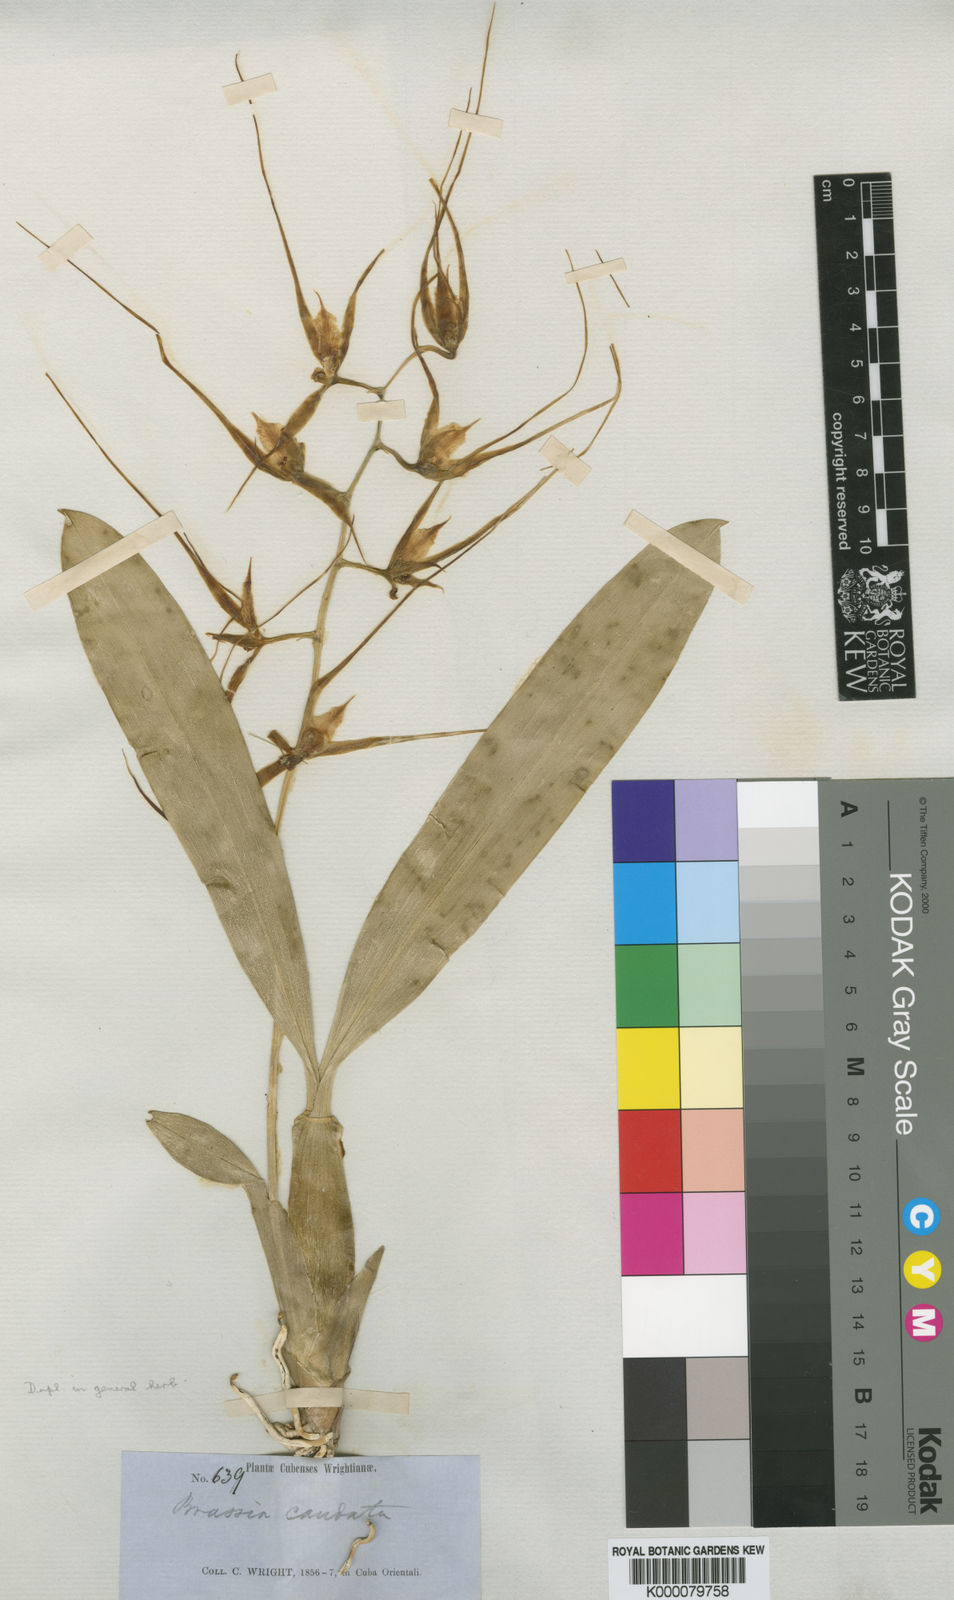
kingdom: Plantae
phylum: Tracheophyta
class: Liliopsida
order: Asparagales
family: Orchidaceae
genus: Brassia
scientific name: Brassia caudata
